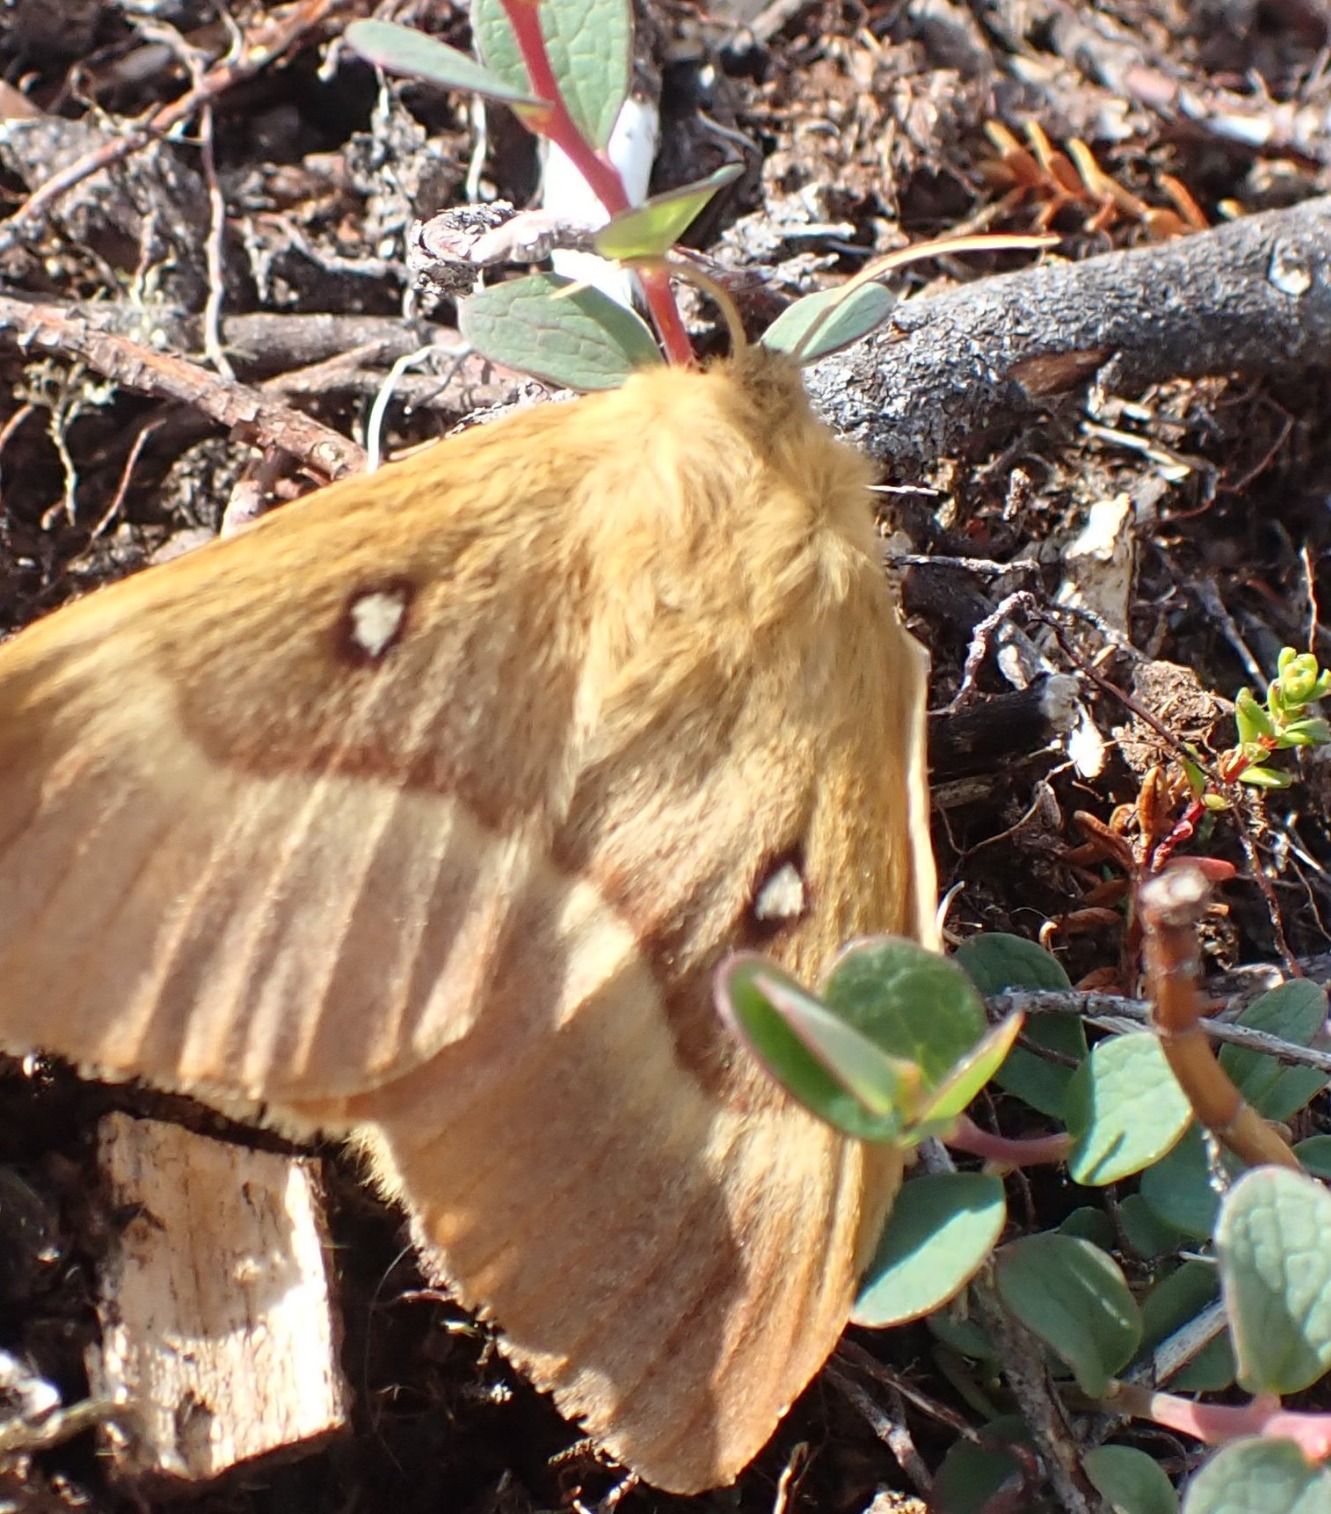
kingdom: Animalia
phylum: Arthropoda
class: Insecta
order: Lepidoptera
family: Lasiocampidae
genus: Lasiocampa
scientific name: Lasiocampa quercus
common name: Egespinder
